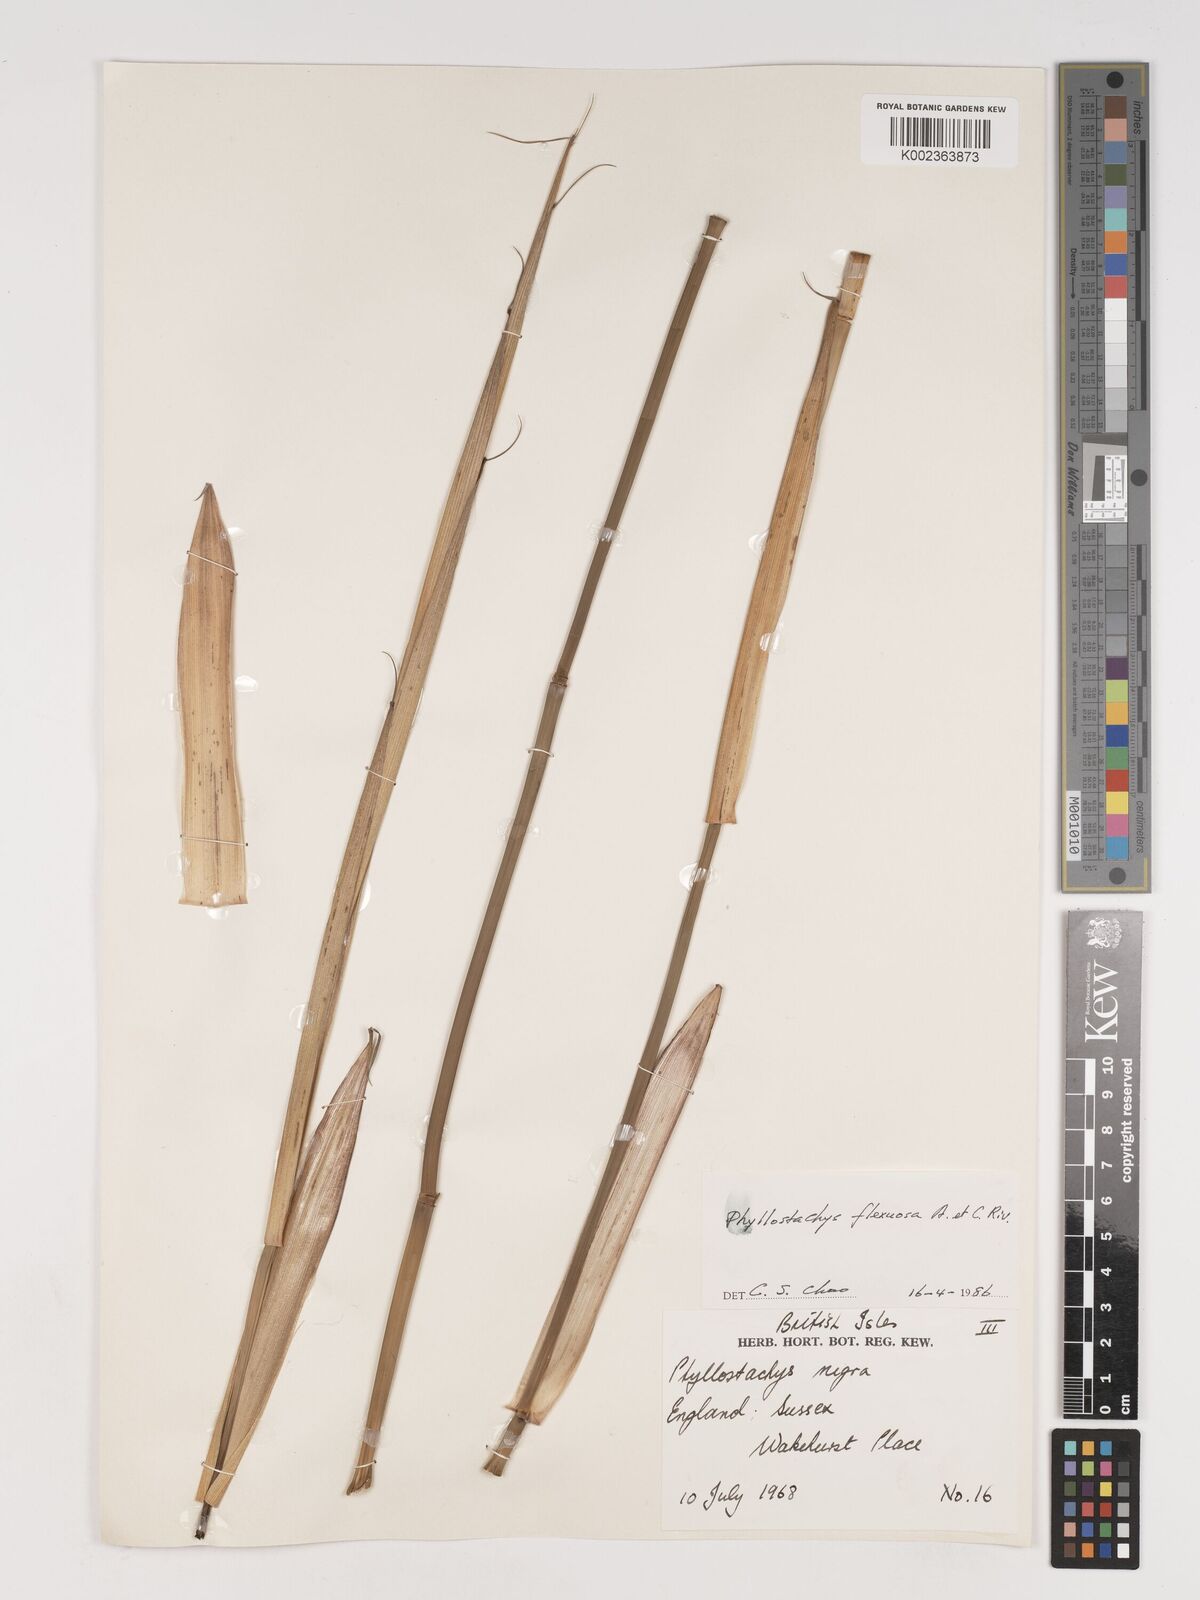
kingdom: Plantae
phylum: Tracheophyta
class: Liliopsida
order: Poales
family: Poaceae
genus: Phyllostachys
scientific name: Phyllostachys flexuosa
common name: Drooping timber bamboo
